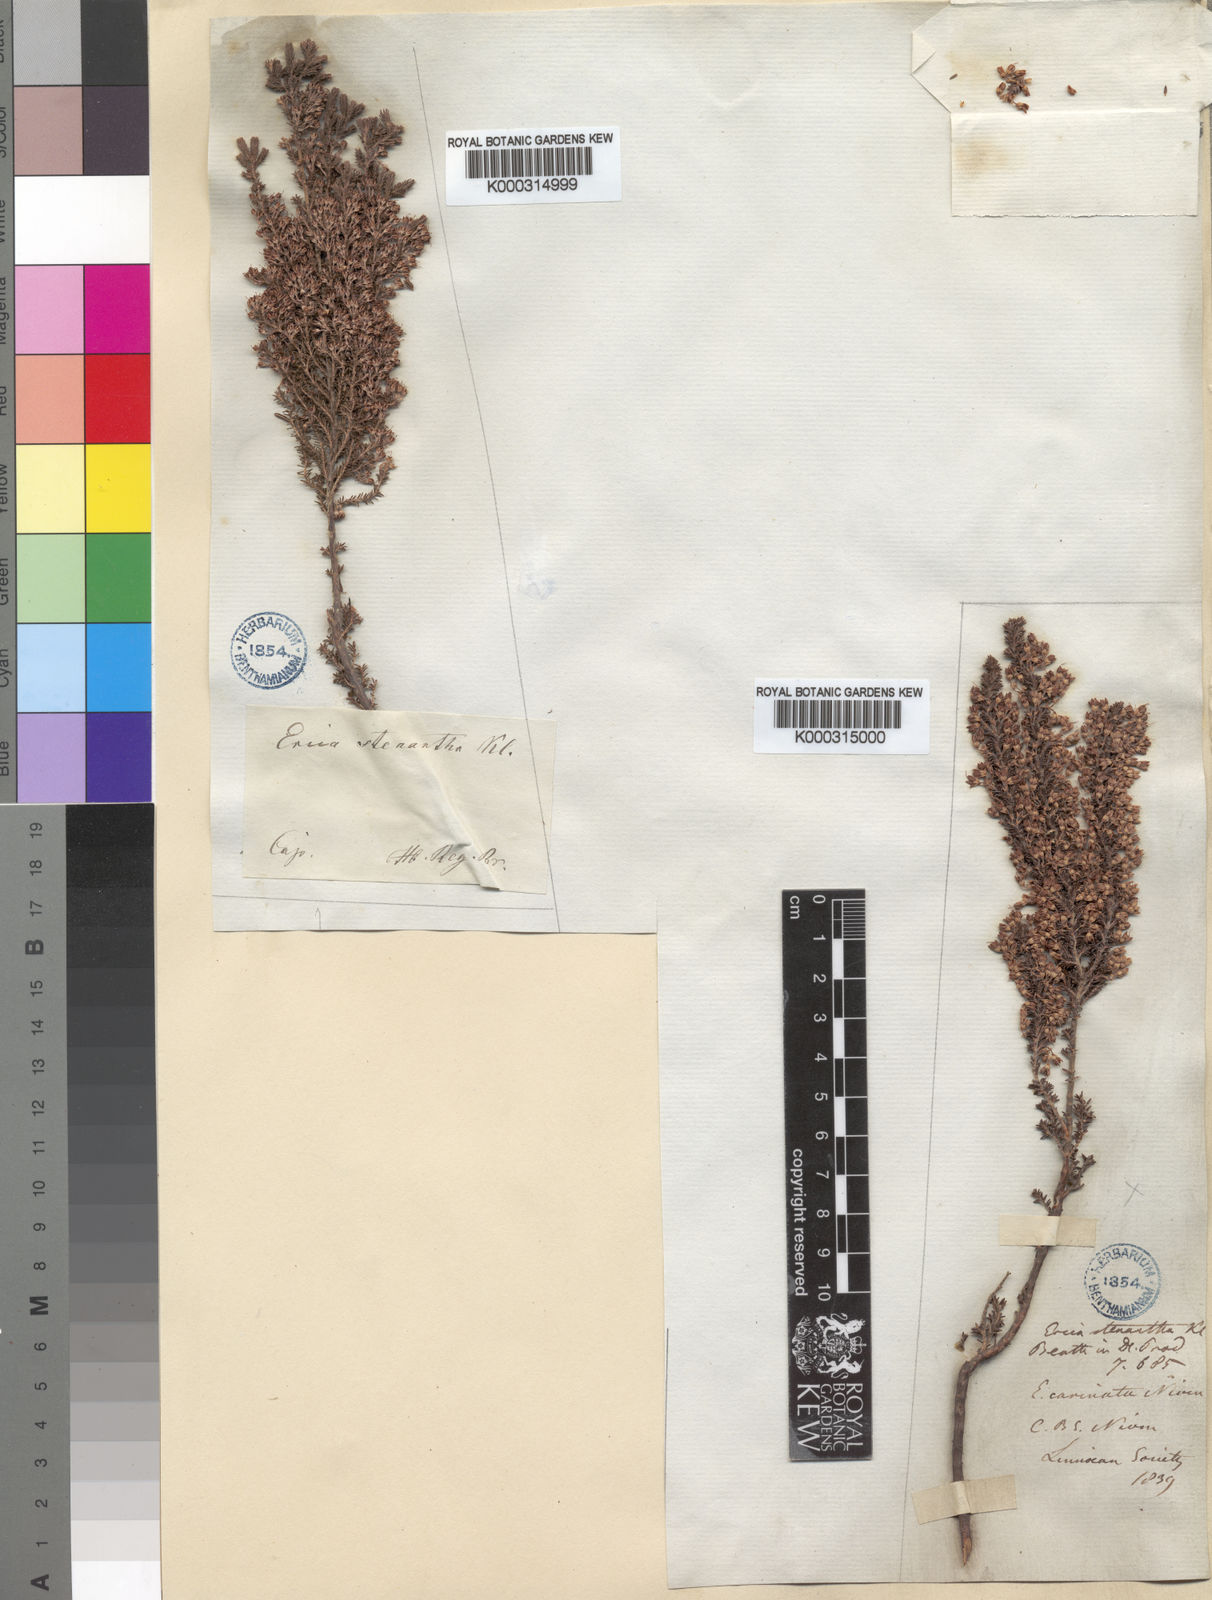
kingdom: Plantae
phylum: Tracheophyta
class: Magnoliopsida
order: Ericales
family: Ericaceae
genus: Erica
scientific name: Erica stenantha
